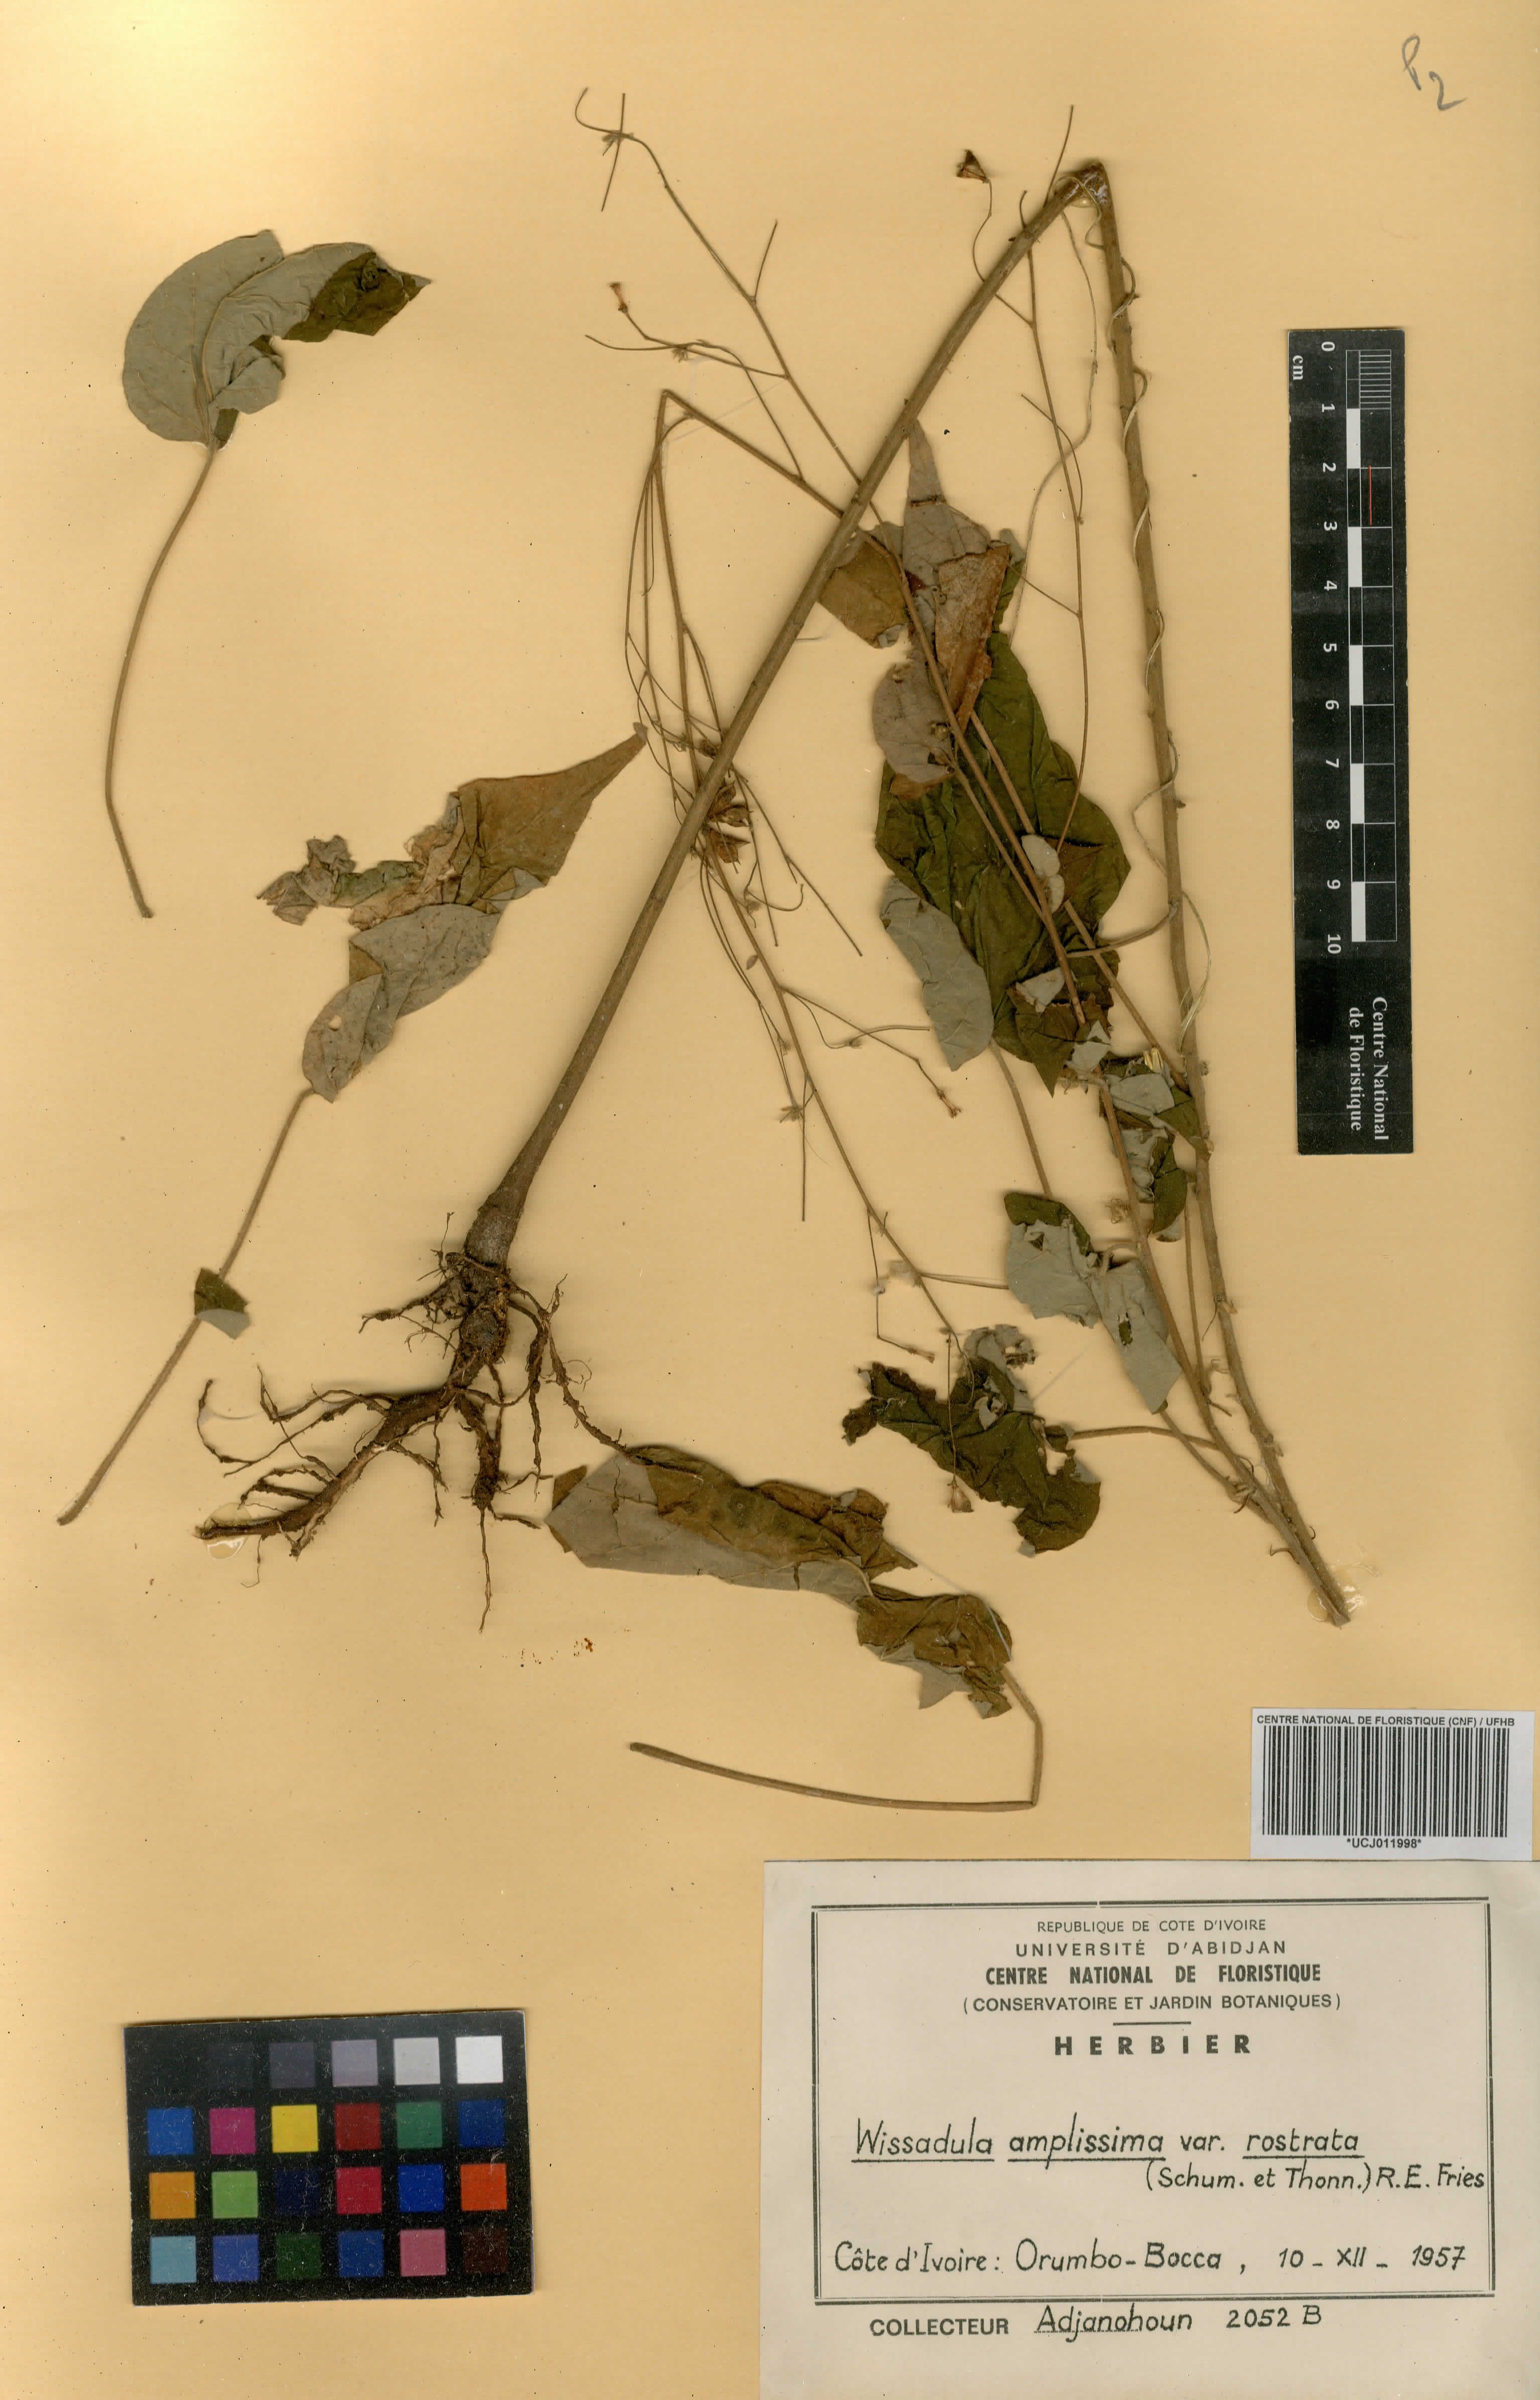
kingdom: Plantae
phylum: Tracheophyta
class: Magnoliopsida
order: Malvales
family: Malvaceae
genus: Wissadula
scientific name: Wissadula periplocifolia
